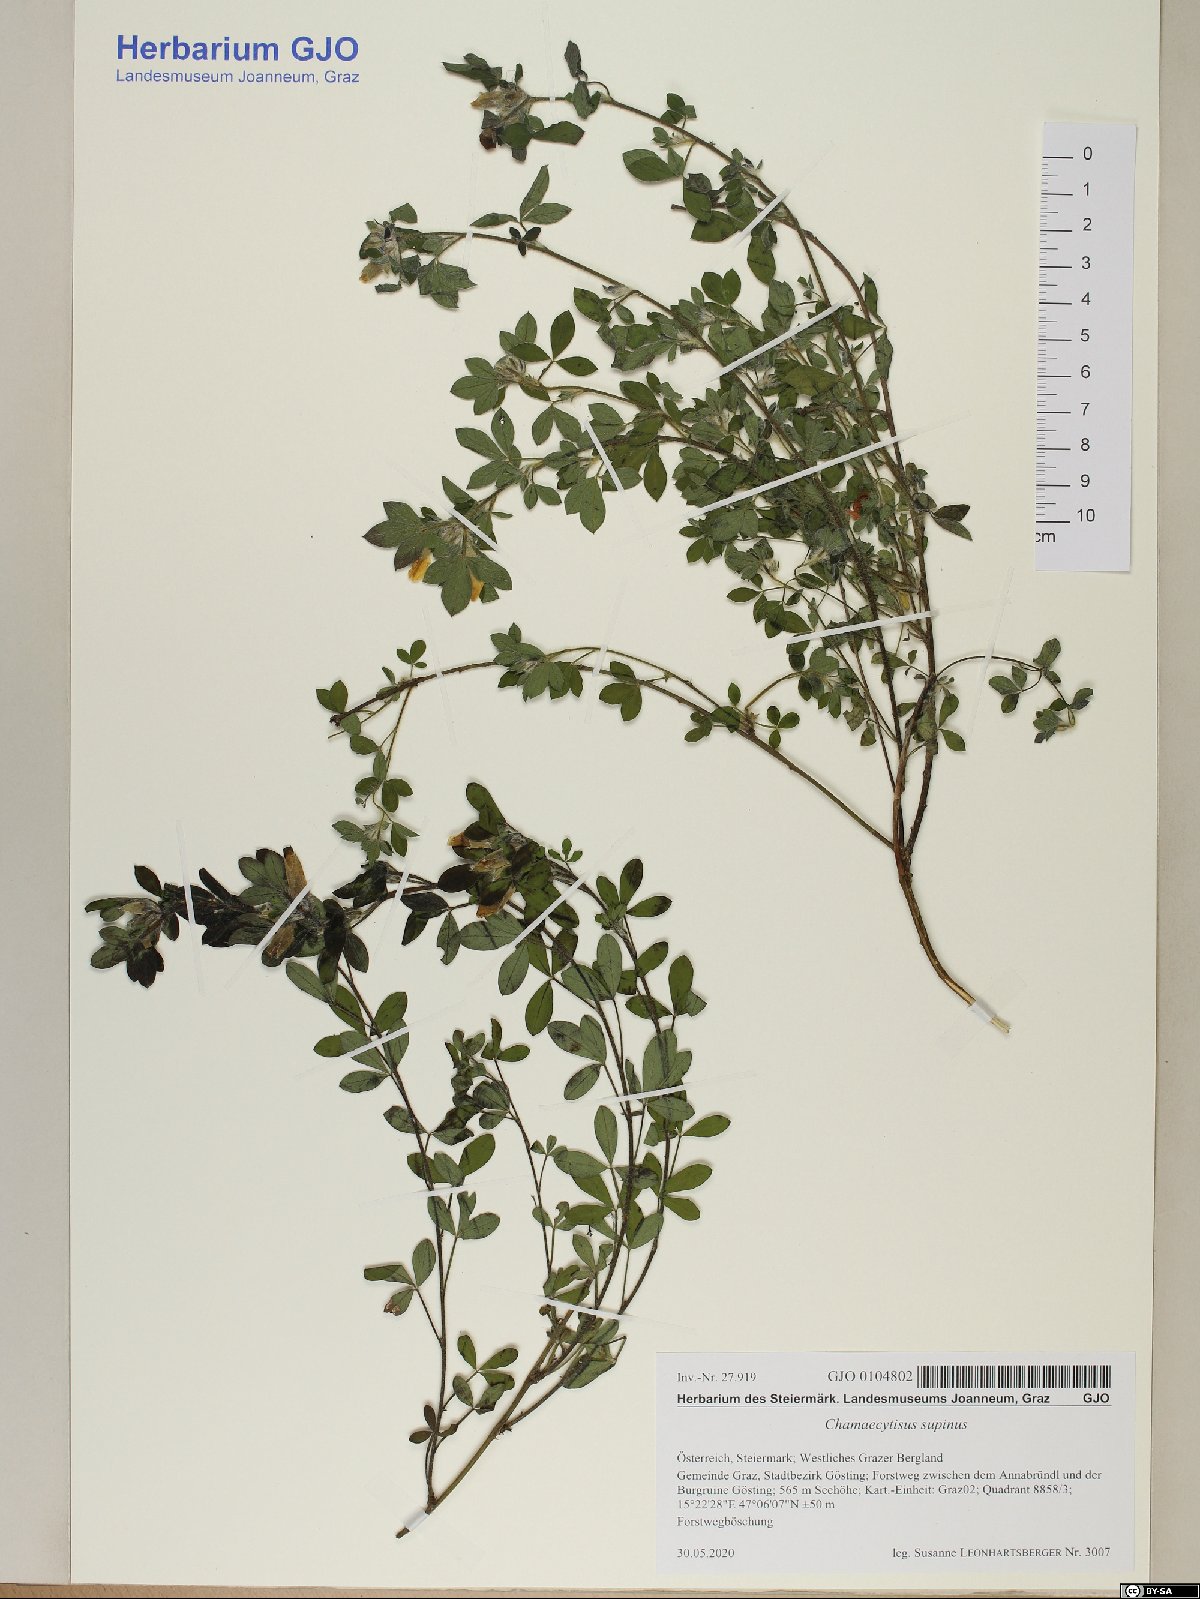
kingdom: Plantae
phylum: Tracheophyta
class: Magnoliopsida
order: Fabales
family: Fabaceae
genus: Chamaecytisus
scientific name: Chamaecytisus supinus
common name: Clustered broom
